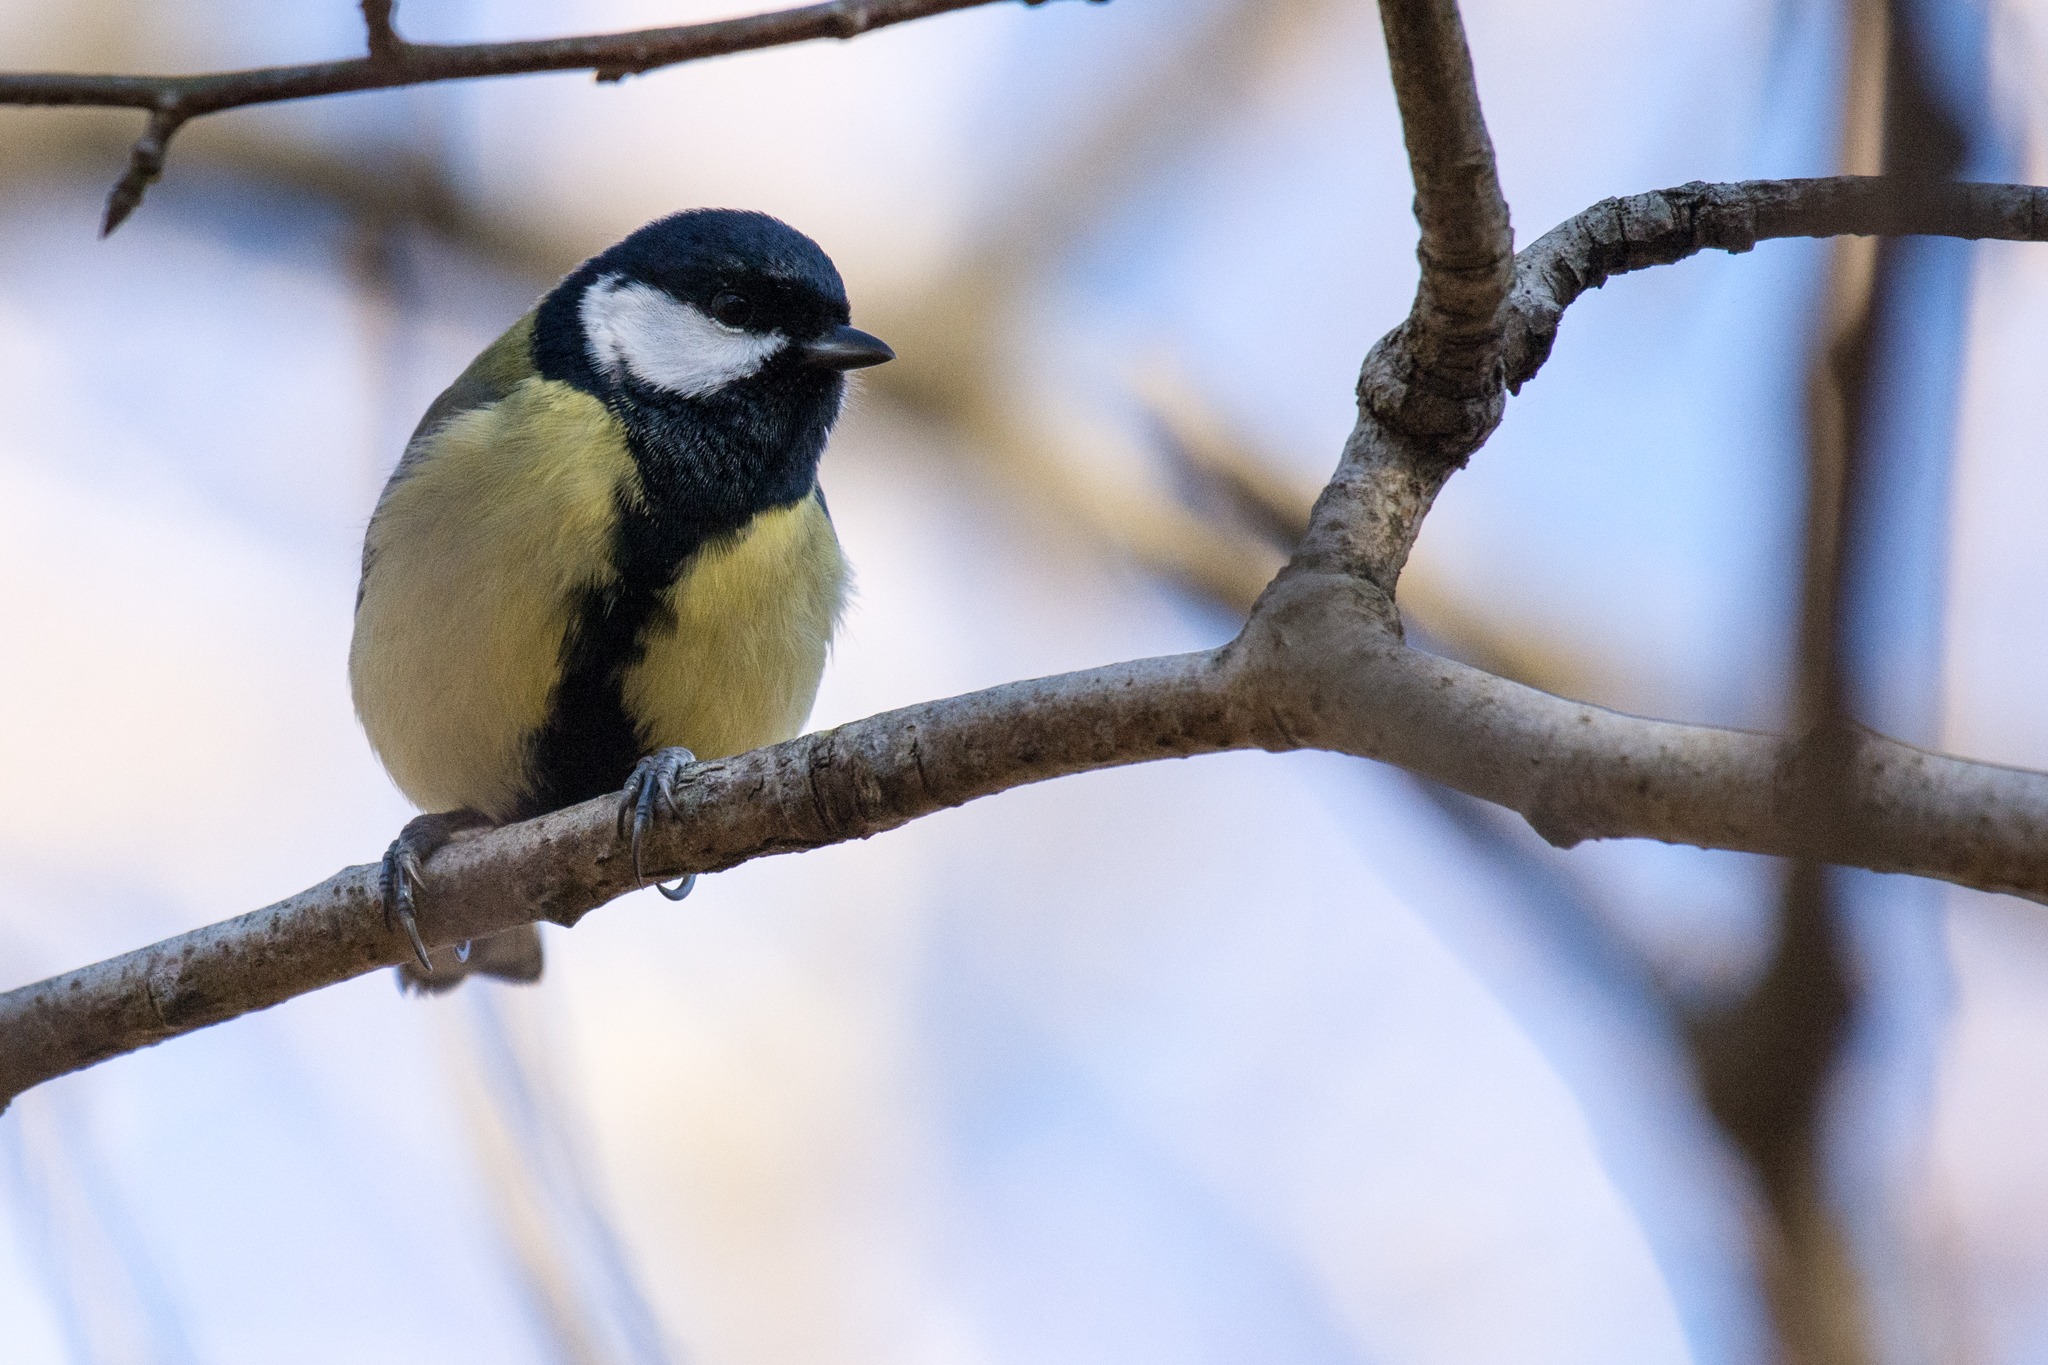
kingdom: Animalia
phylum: Chordata
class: Aves
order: Passeriformes
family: Paridae
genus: Parus
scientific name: Parus major
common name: Musvit
